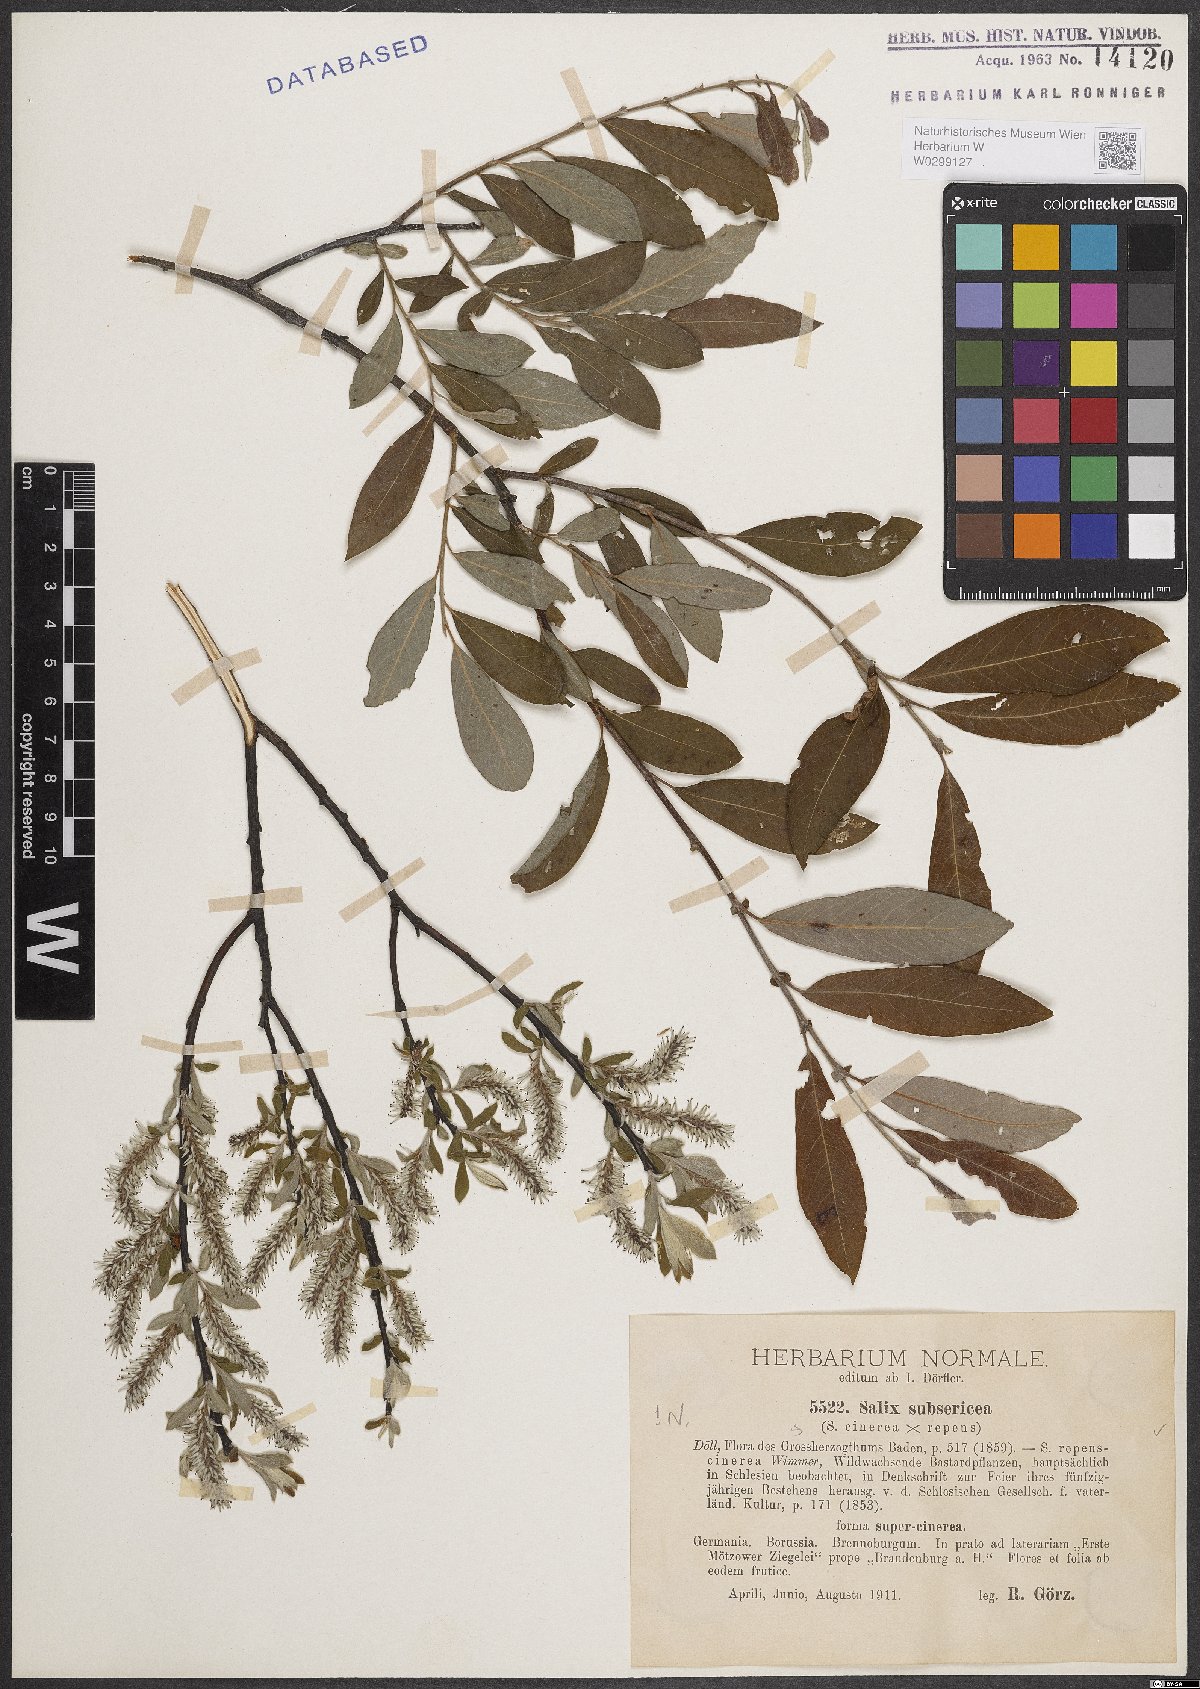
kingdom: Plantae
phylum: Tracheophyta
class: Magnoliopsida
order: Malpighiales
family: Salicaceae
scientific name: Salicaceae
